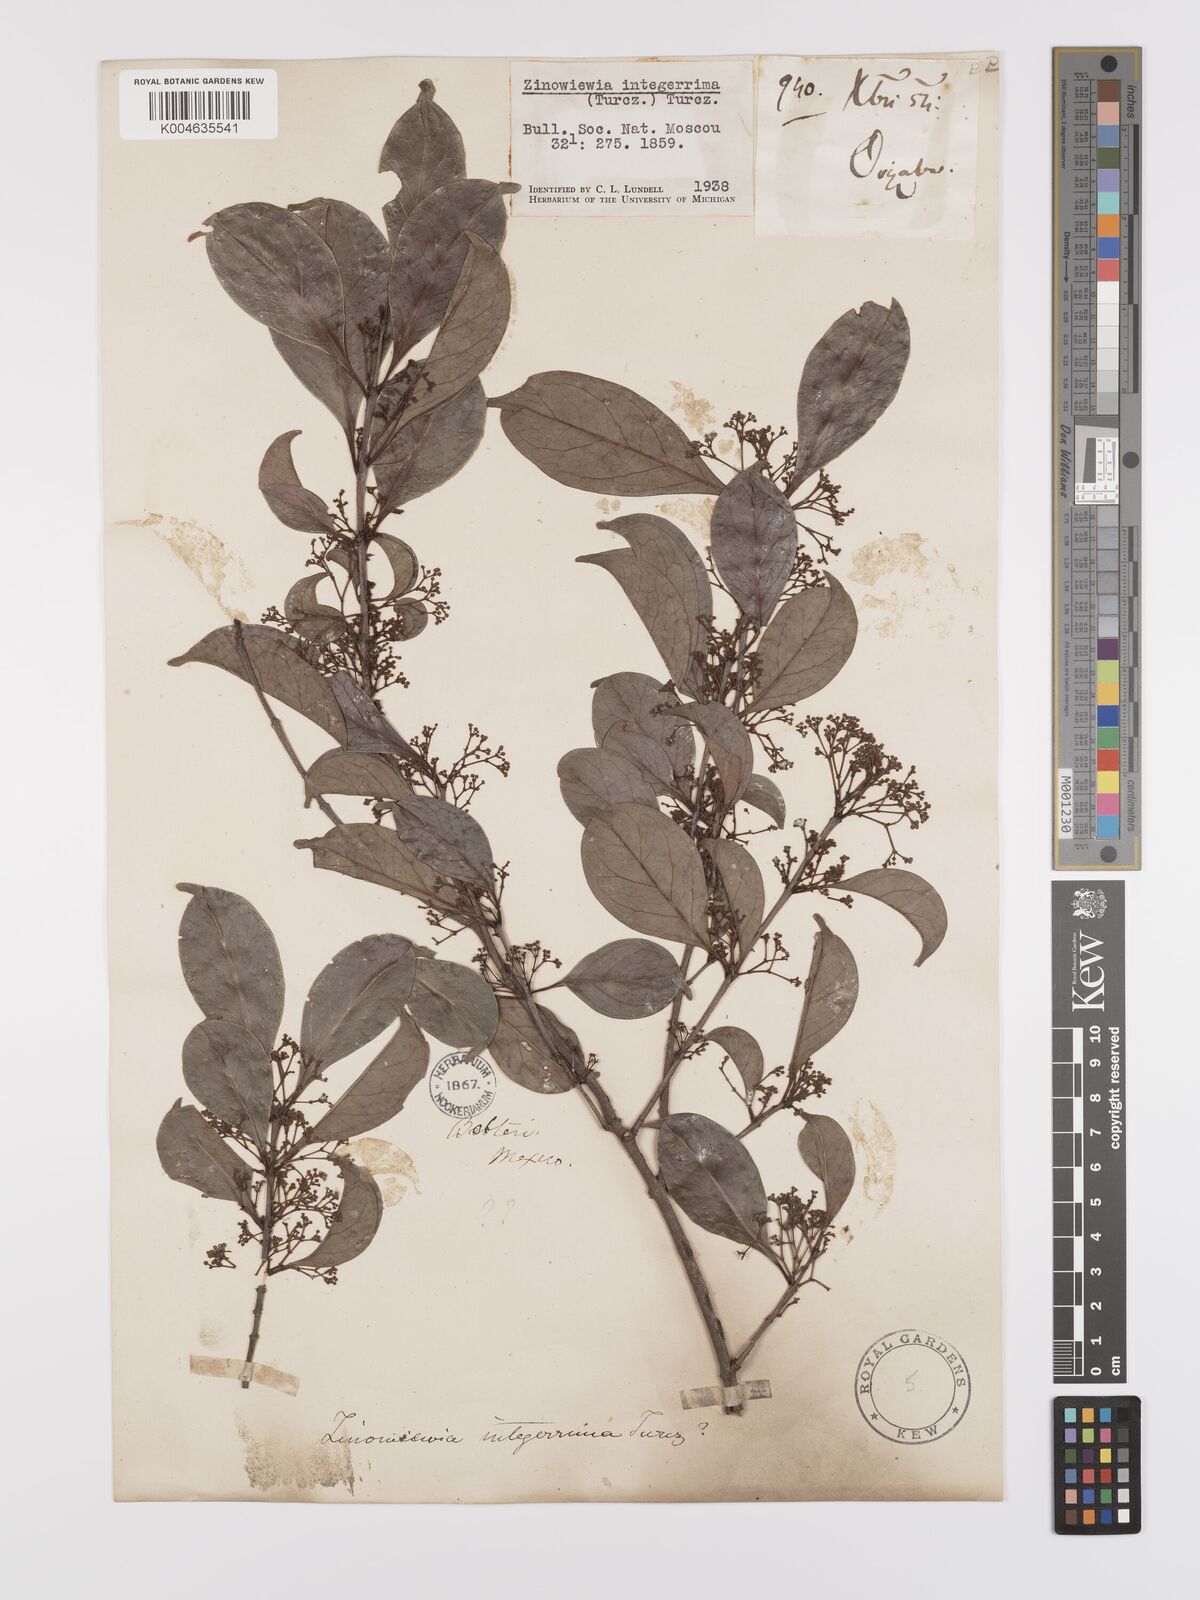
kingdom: Plantae
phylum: Tracheophyta
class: Magnoliopsida
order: Celastrales
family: Celastraceae
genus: Zinowiewia
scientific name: Zinowiewia integerrima
